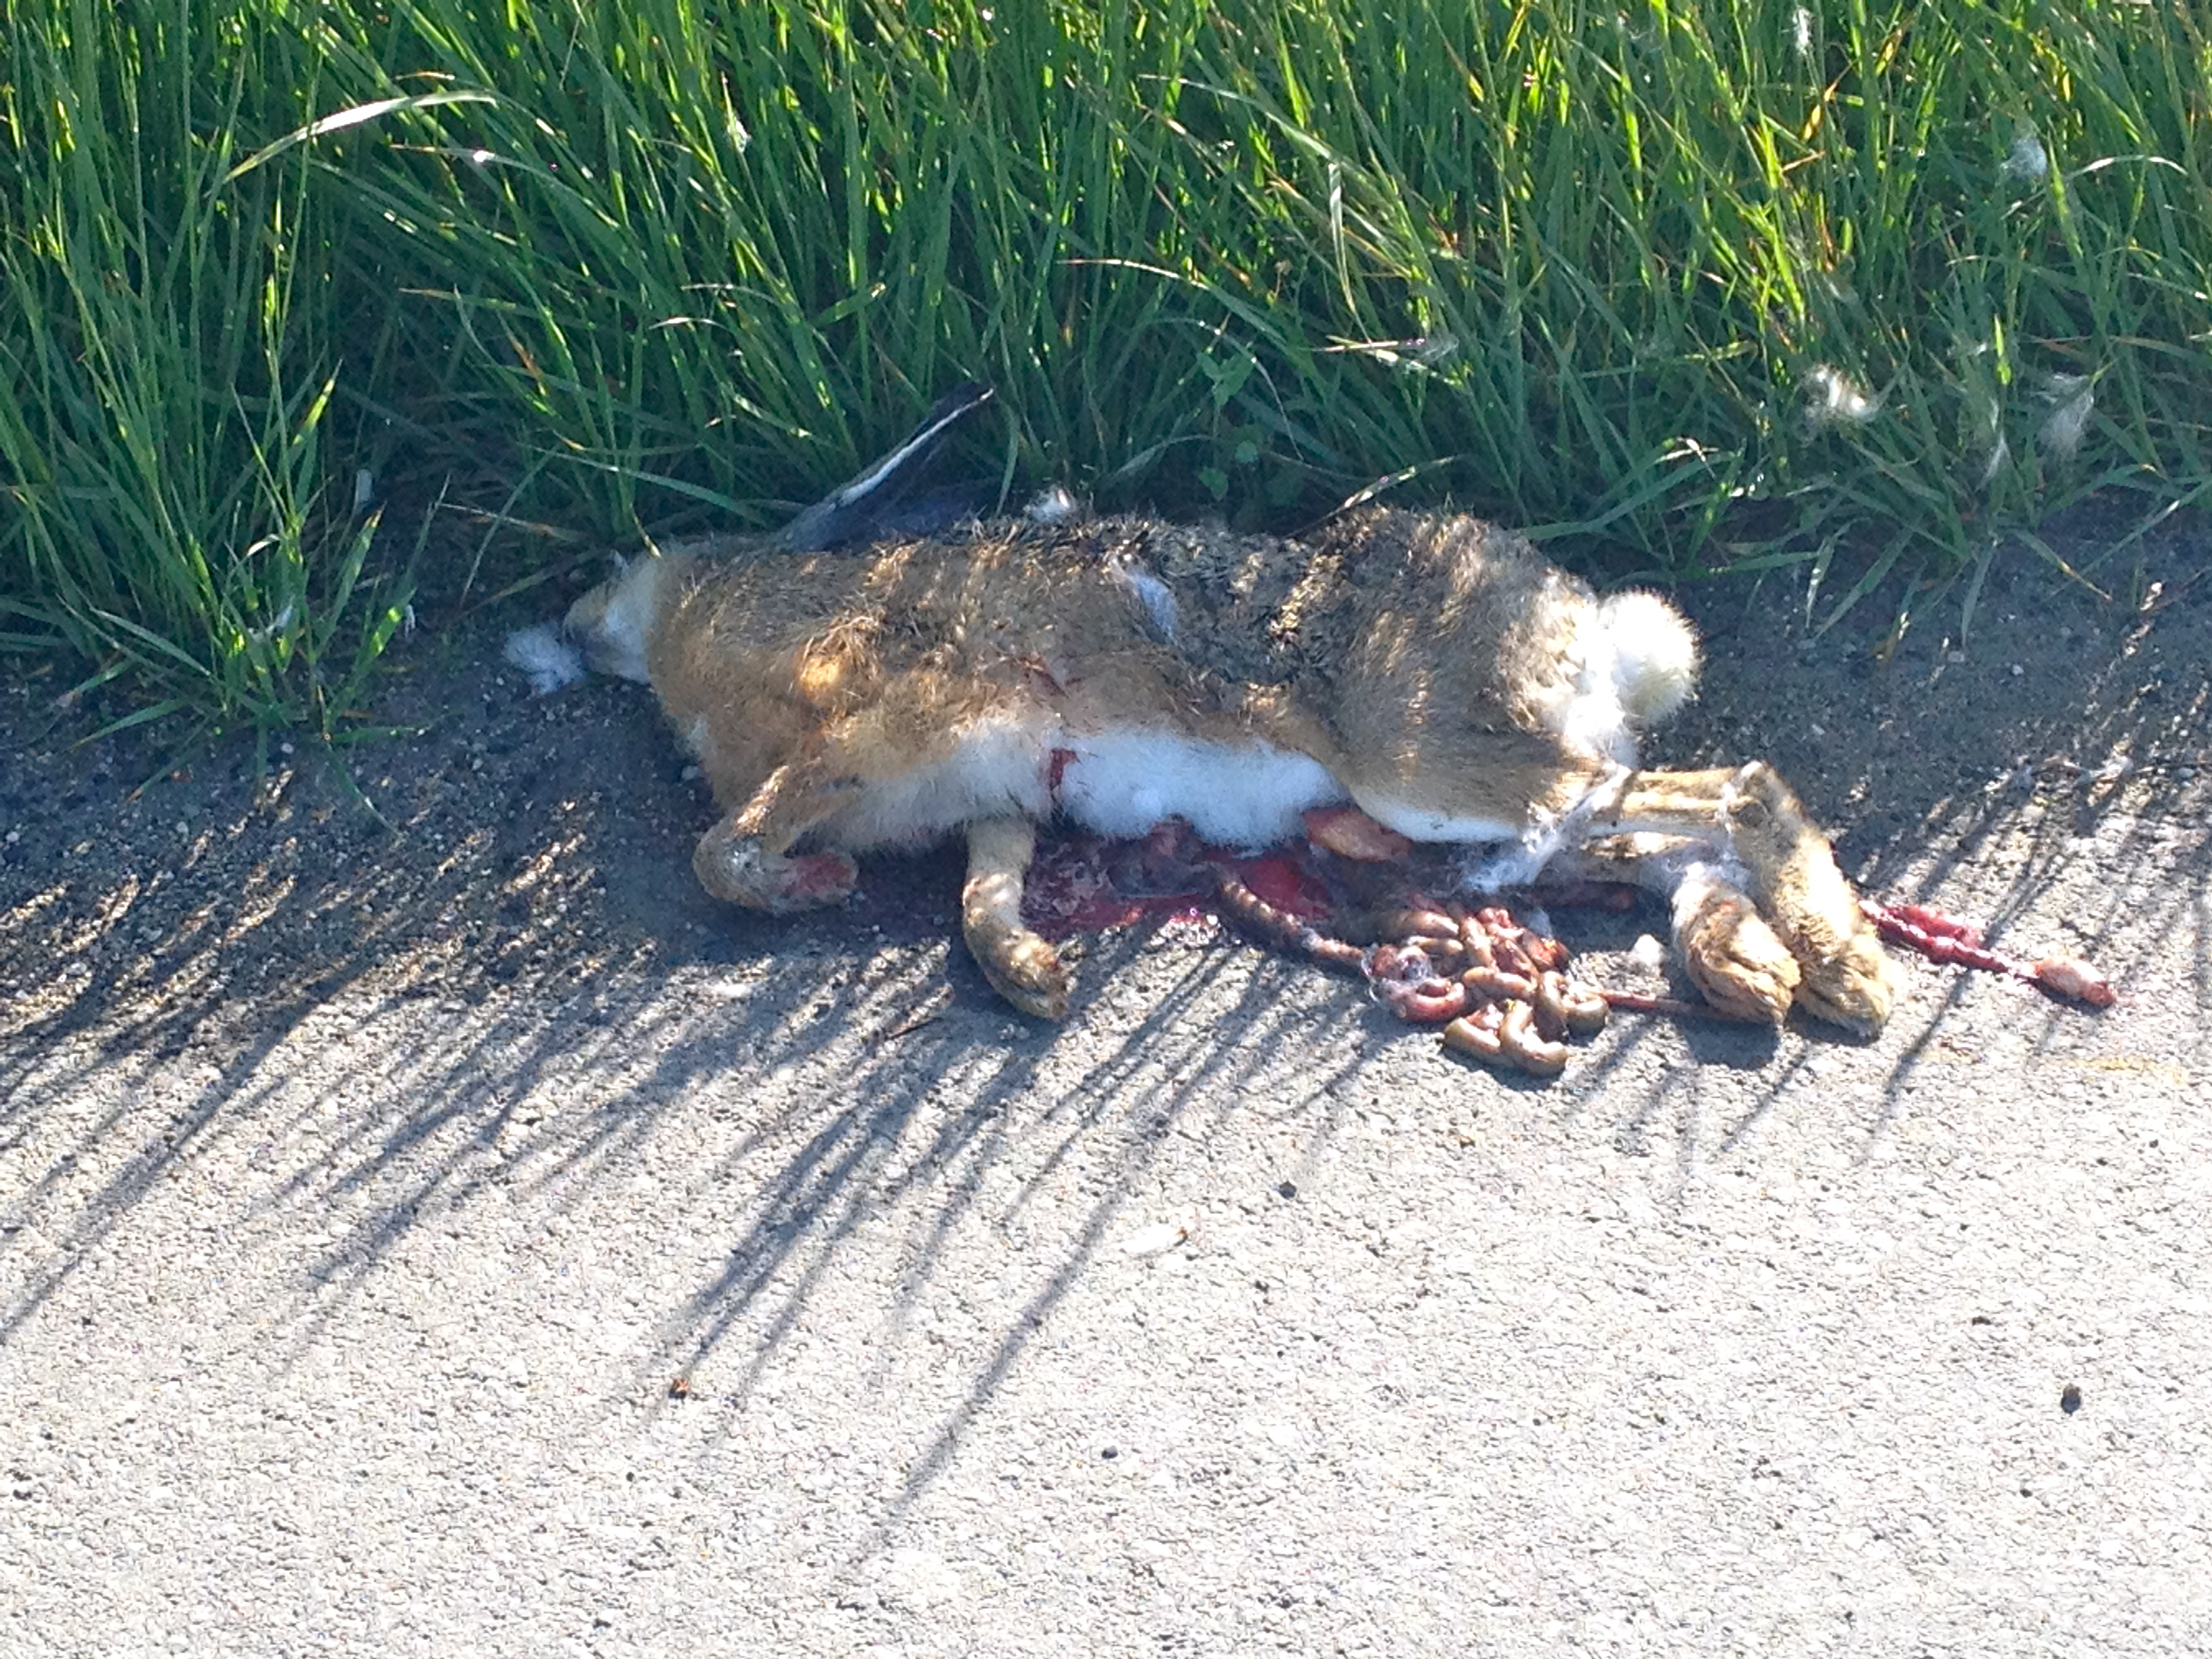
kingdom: Animalia
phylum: Chordata
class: Mammalia
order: Lagomorpha
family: Leporidae
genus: Lepus
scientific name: Lepus europaeus
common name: European hare
